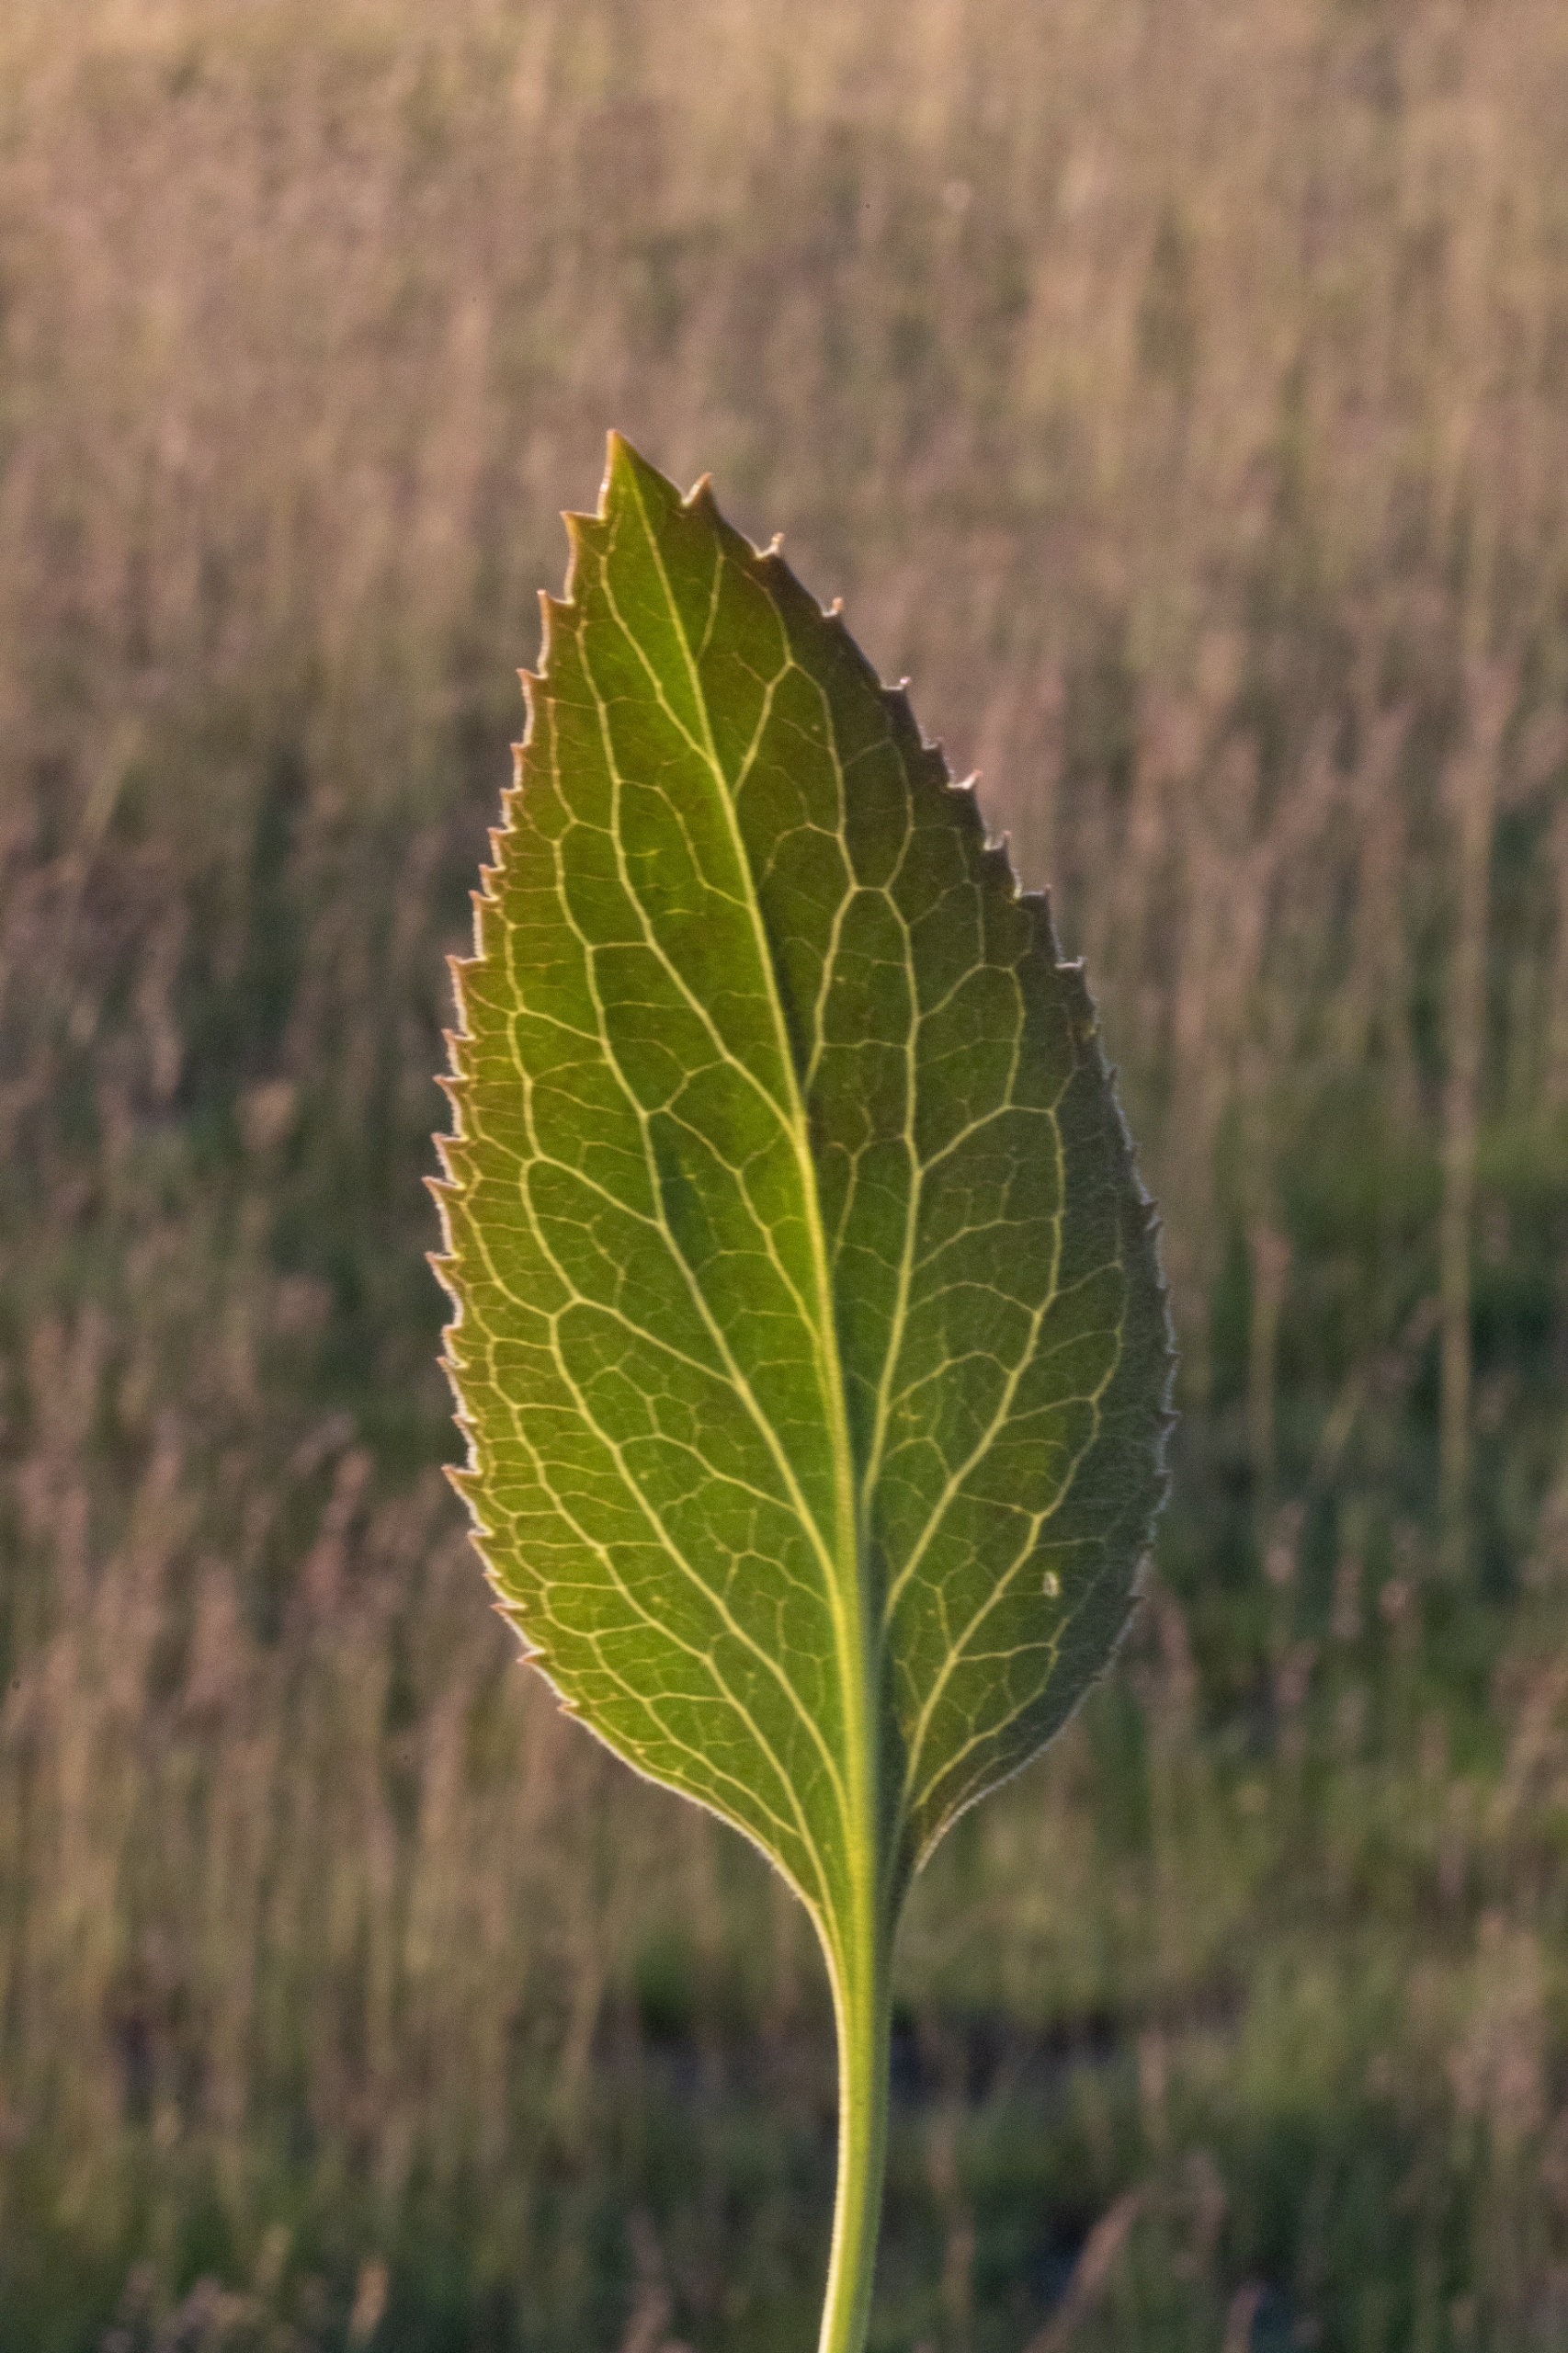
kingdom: Plantae
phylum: Tracheophyta
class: Magnoliopsida
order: Brassicales
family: Brassicaceae
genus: Lepidium
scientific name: Lepidium latifolium
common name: Strand-karse
